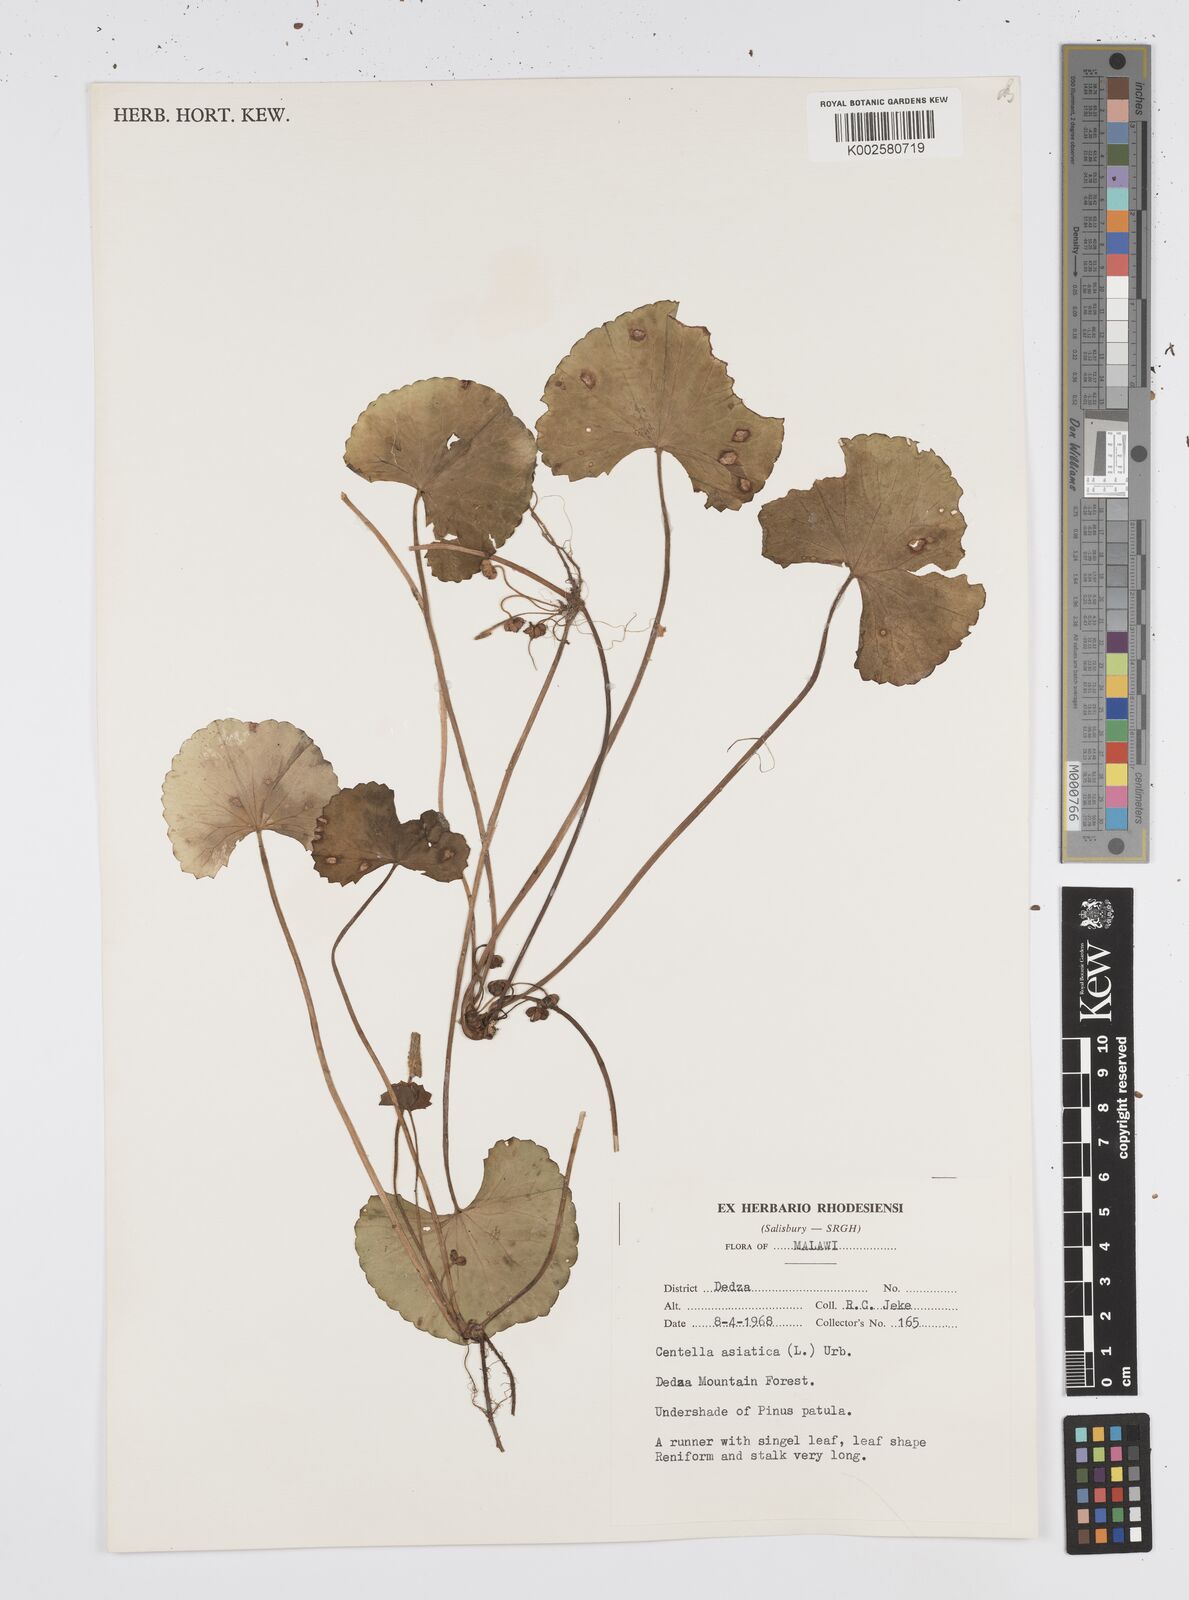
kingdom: Plantae
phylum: Tracheophyta
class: Magnoliopsida
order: Apiales
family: Apiaceae
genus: Centella
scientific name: Centella asiatica
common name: Spadeleaf
